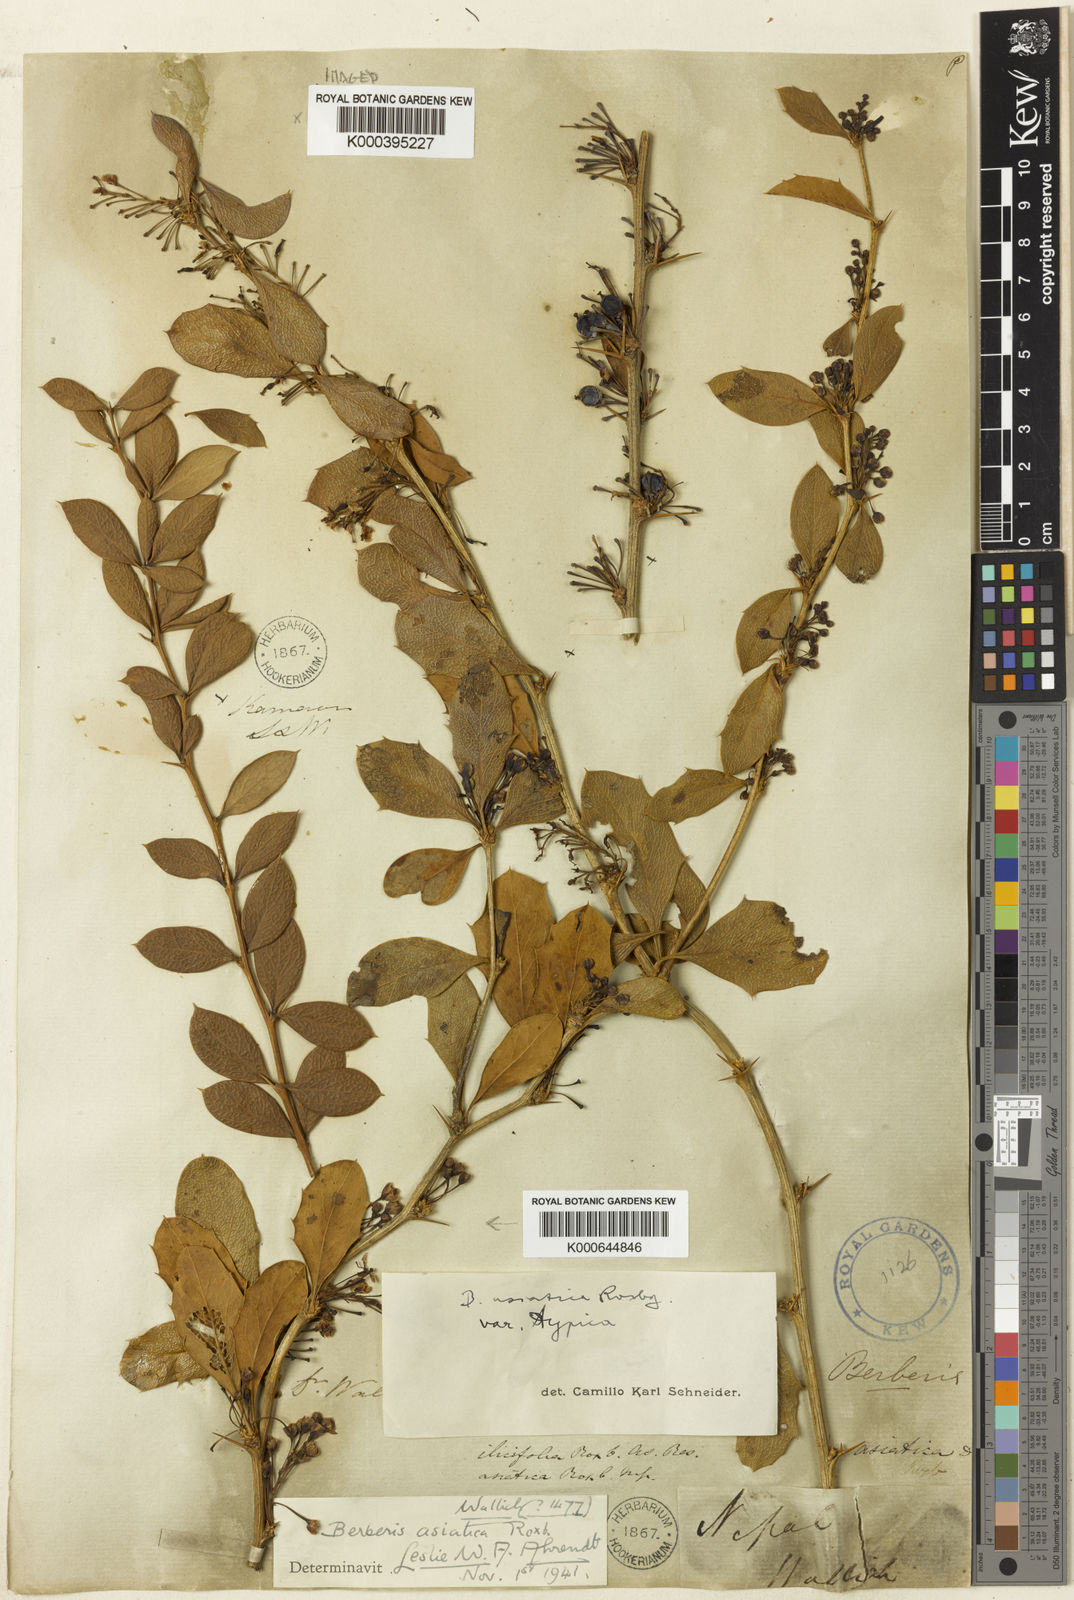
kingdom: Plantae
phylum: Tracheophyta
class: Magnoliopsida
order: Ranunculales
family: Berberidaceae
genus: Berberis
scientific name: Berberis asiatica
